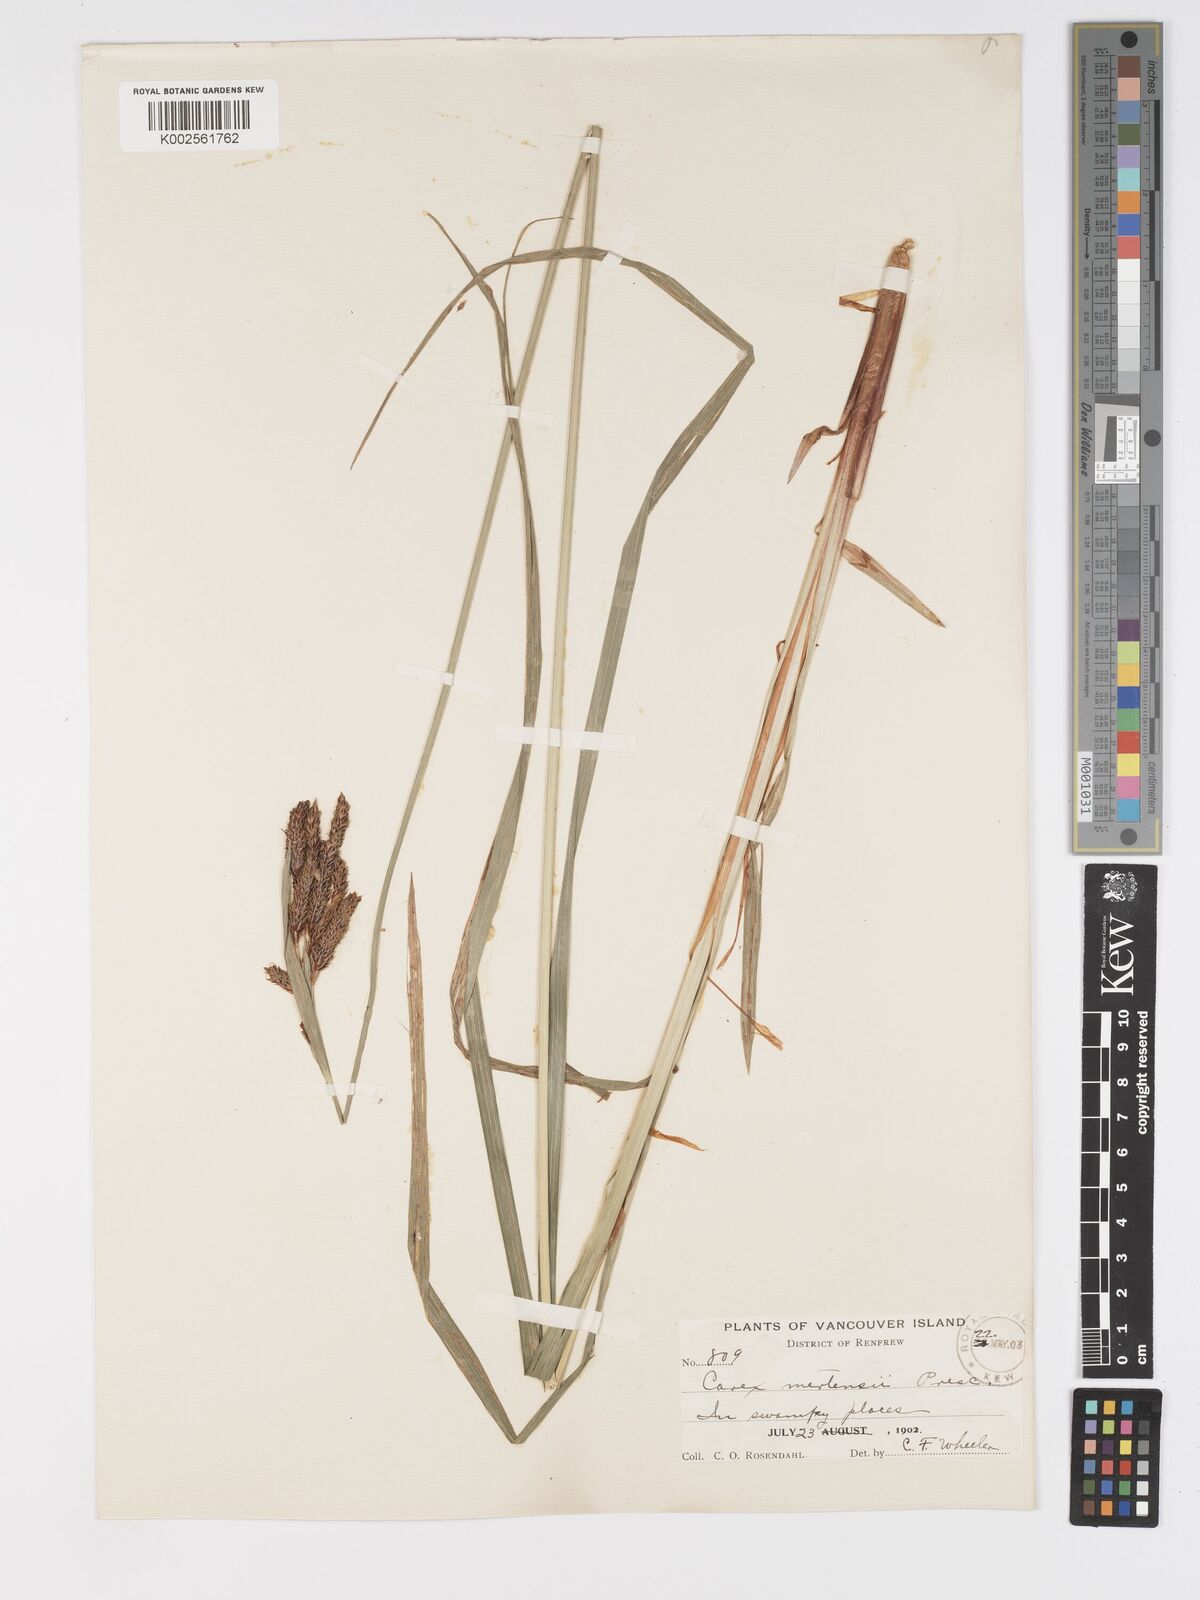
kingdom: Plantae
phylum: Tracheophyta
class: Liliopsida
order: Poales
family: Cyperaceae
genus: Carex
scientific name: Carex mertensii
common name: Mertens' sedge
